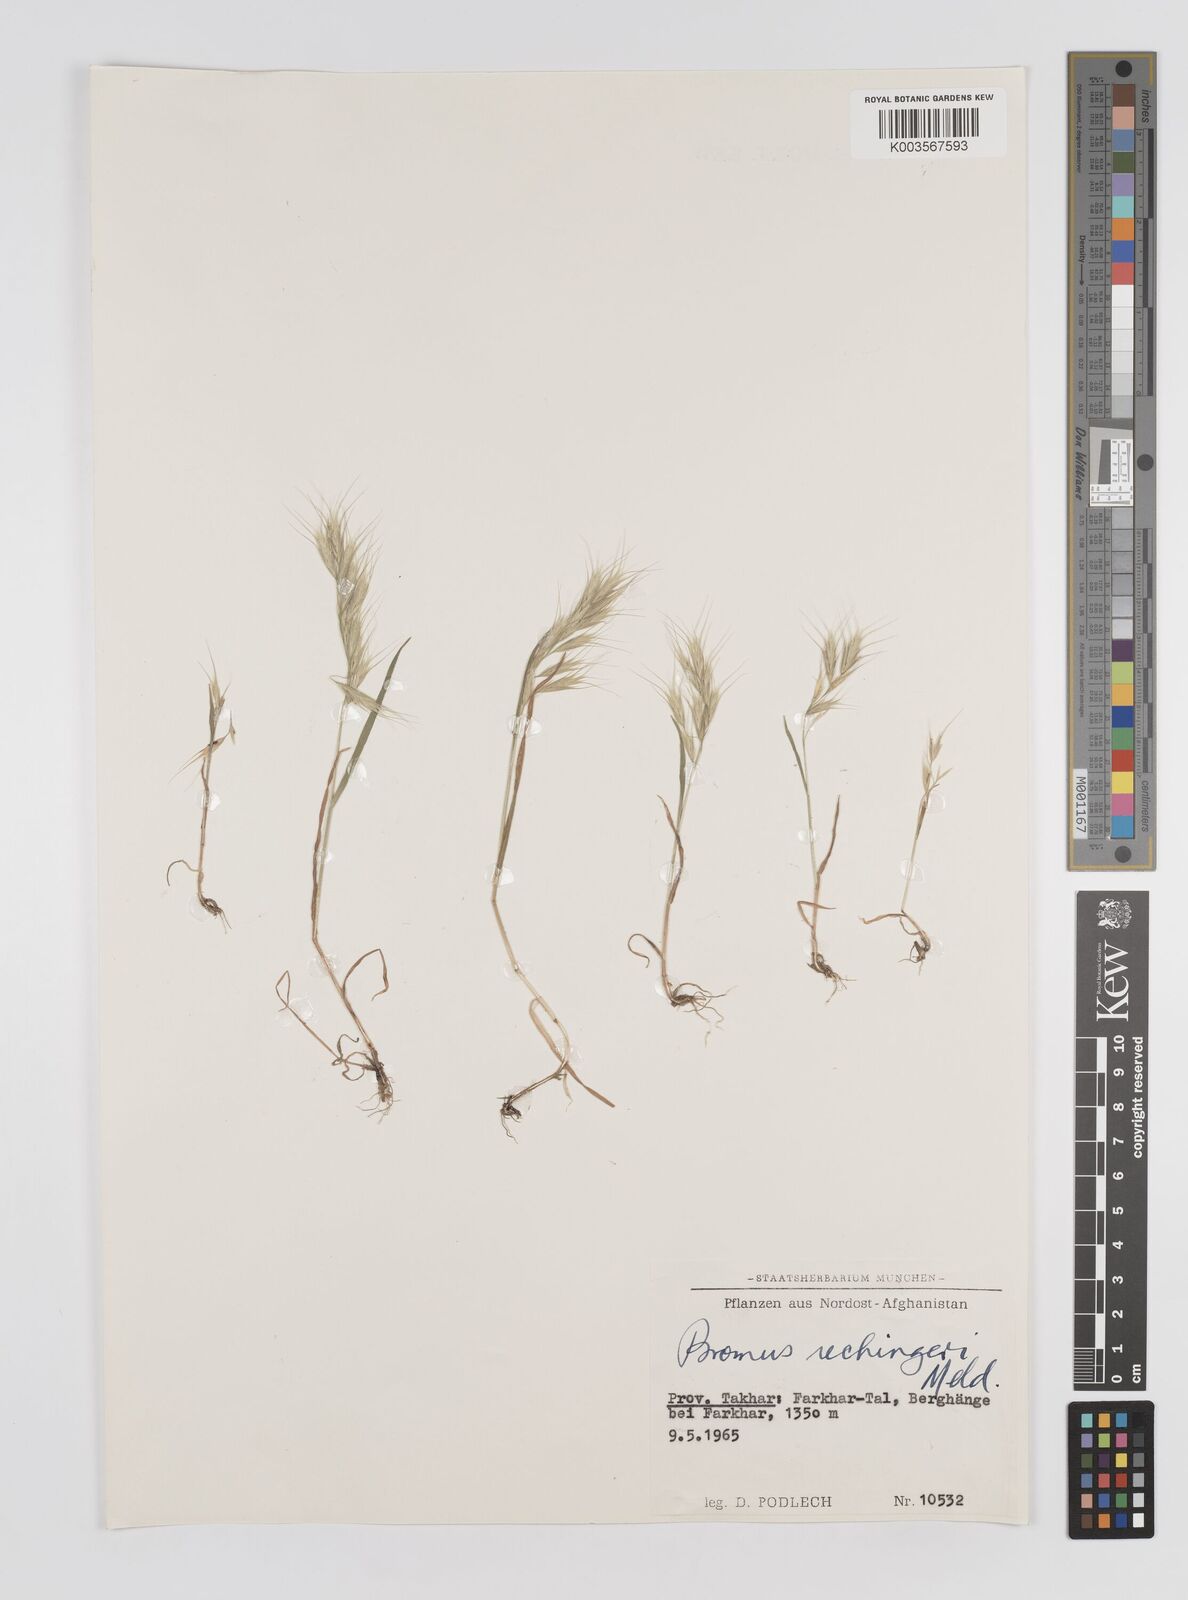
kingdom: Plantae
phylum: Tracheophyta
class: Liliopsida
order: Poales
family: Poaceae
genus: Bromus
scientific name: Bromus pectinatus
